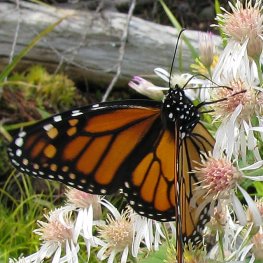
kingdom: Animalia
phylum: Arthropoda
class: Insecta
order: Lepidoptera
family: Nymphalidae
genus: Danaus
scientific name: Danaus plexippus
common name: Monarch
